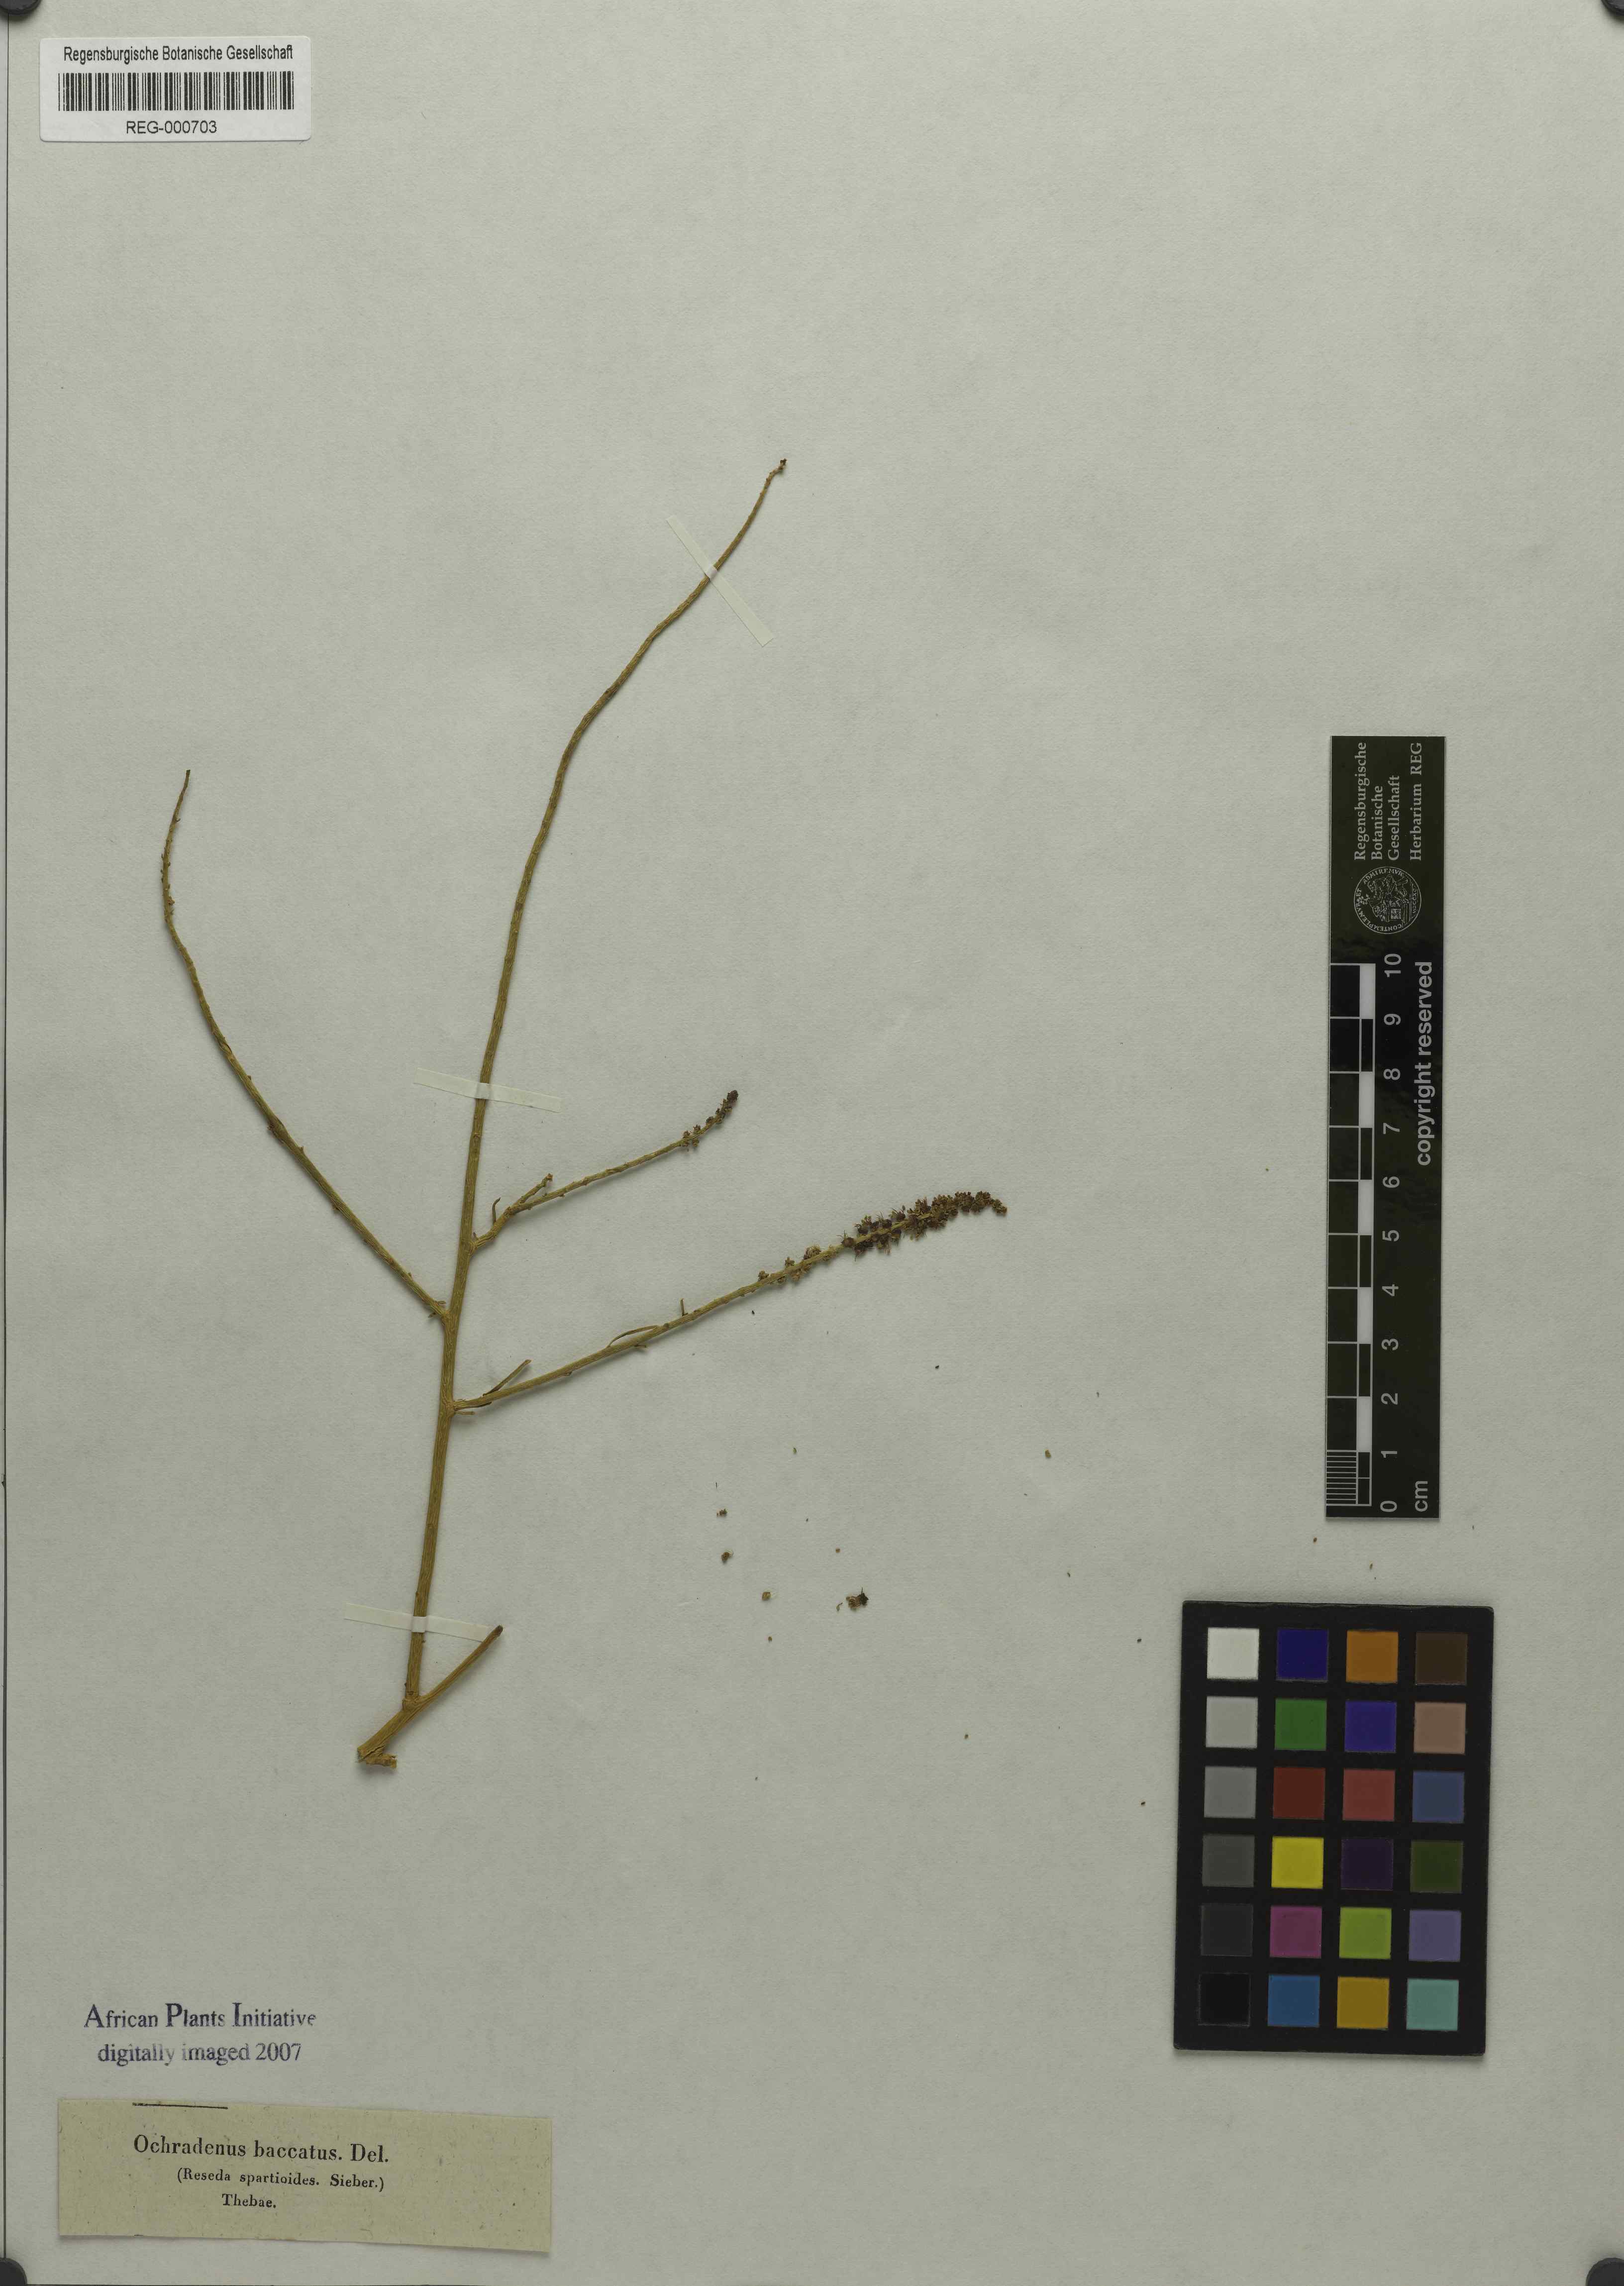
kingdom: Plantae
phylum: Tracheophyta
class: Magnoliopsida
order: Brassicales
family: Resedaceae
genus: Ochradenus
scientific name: Ochradenus baccatus
